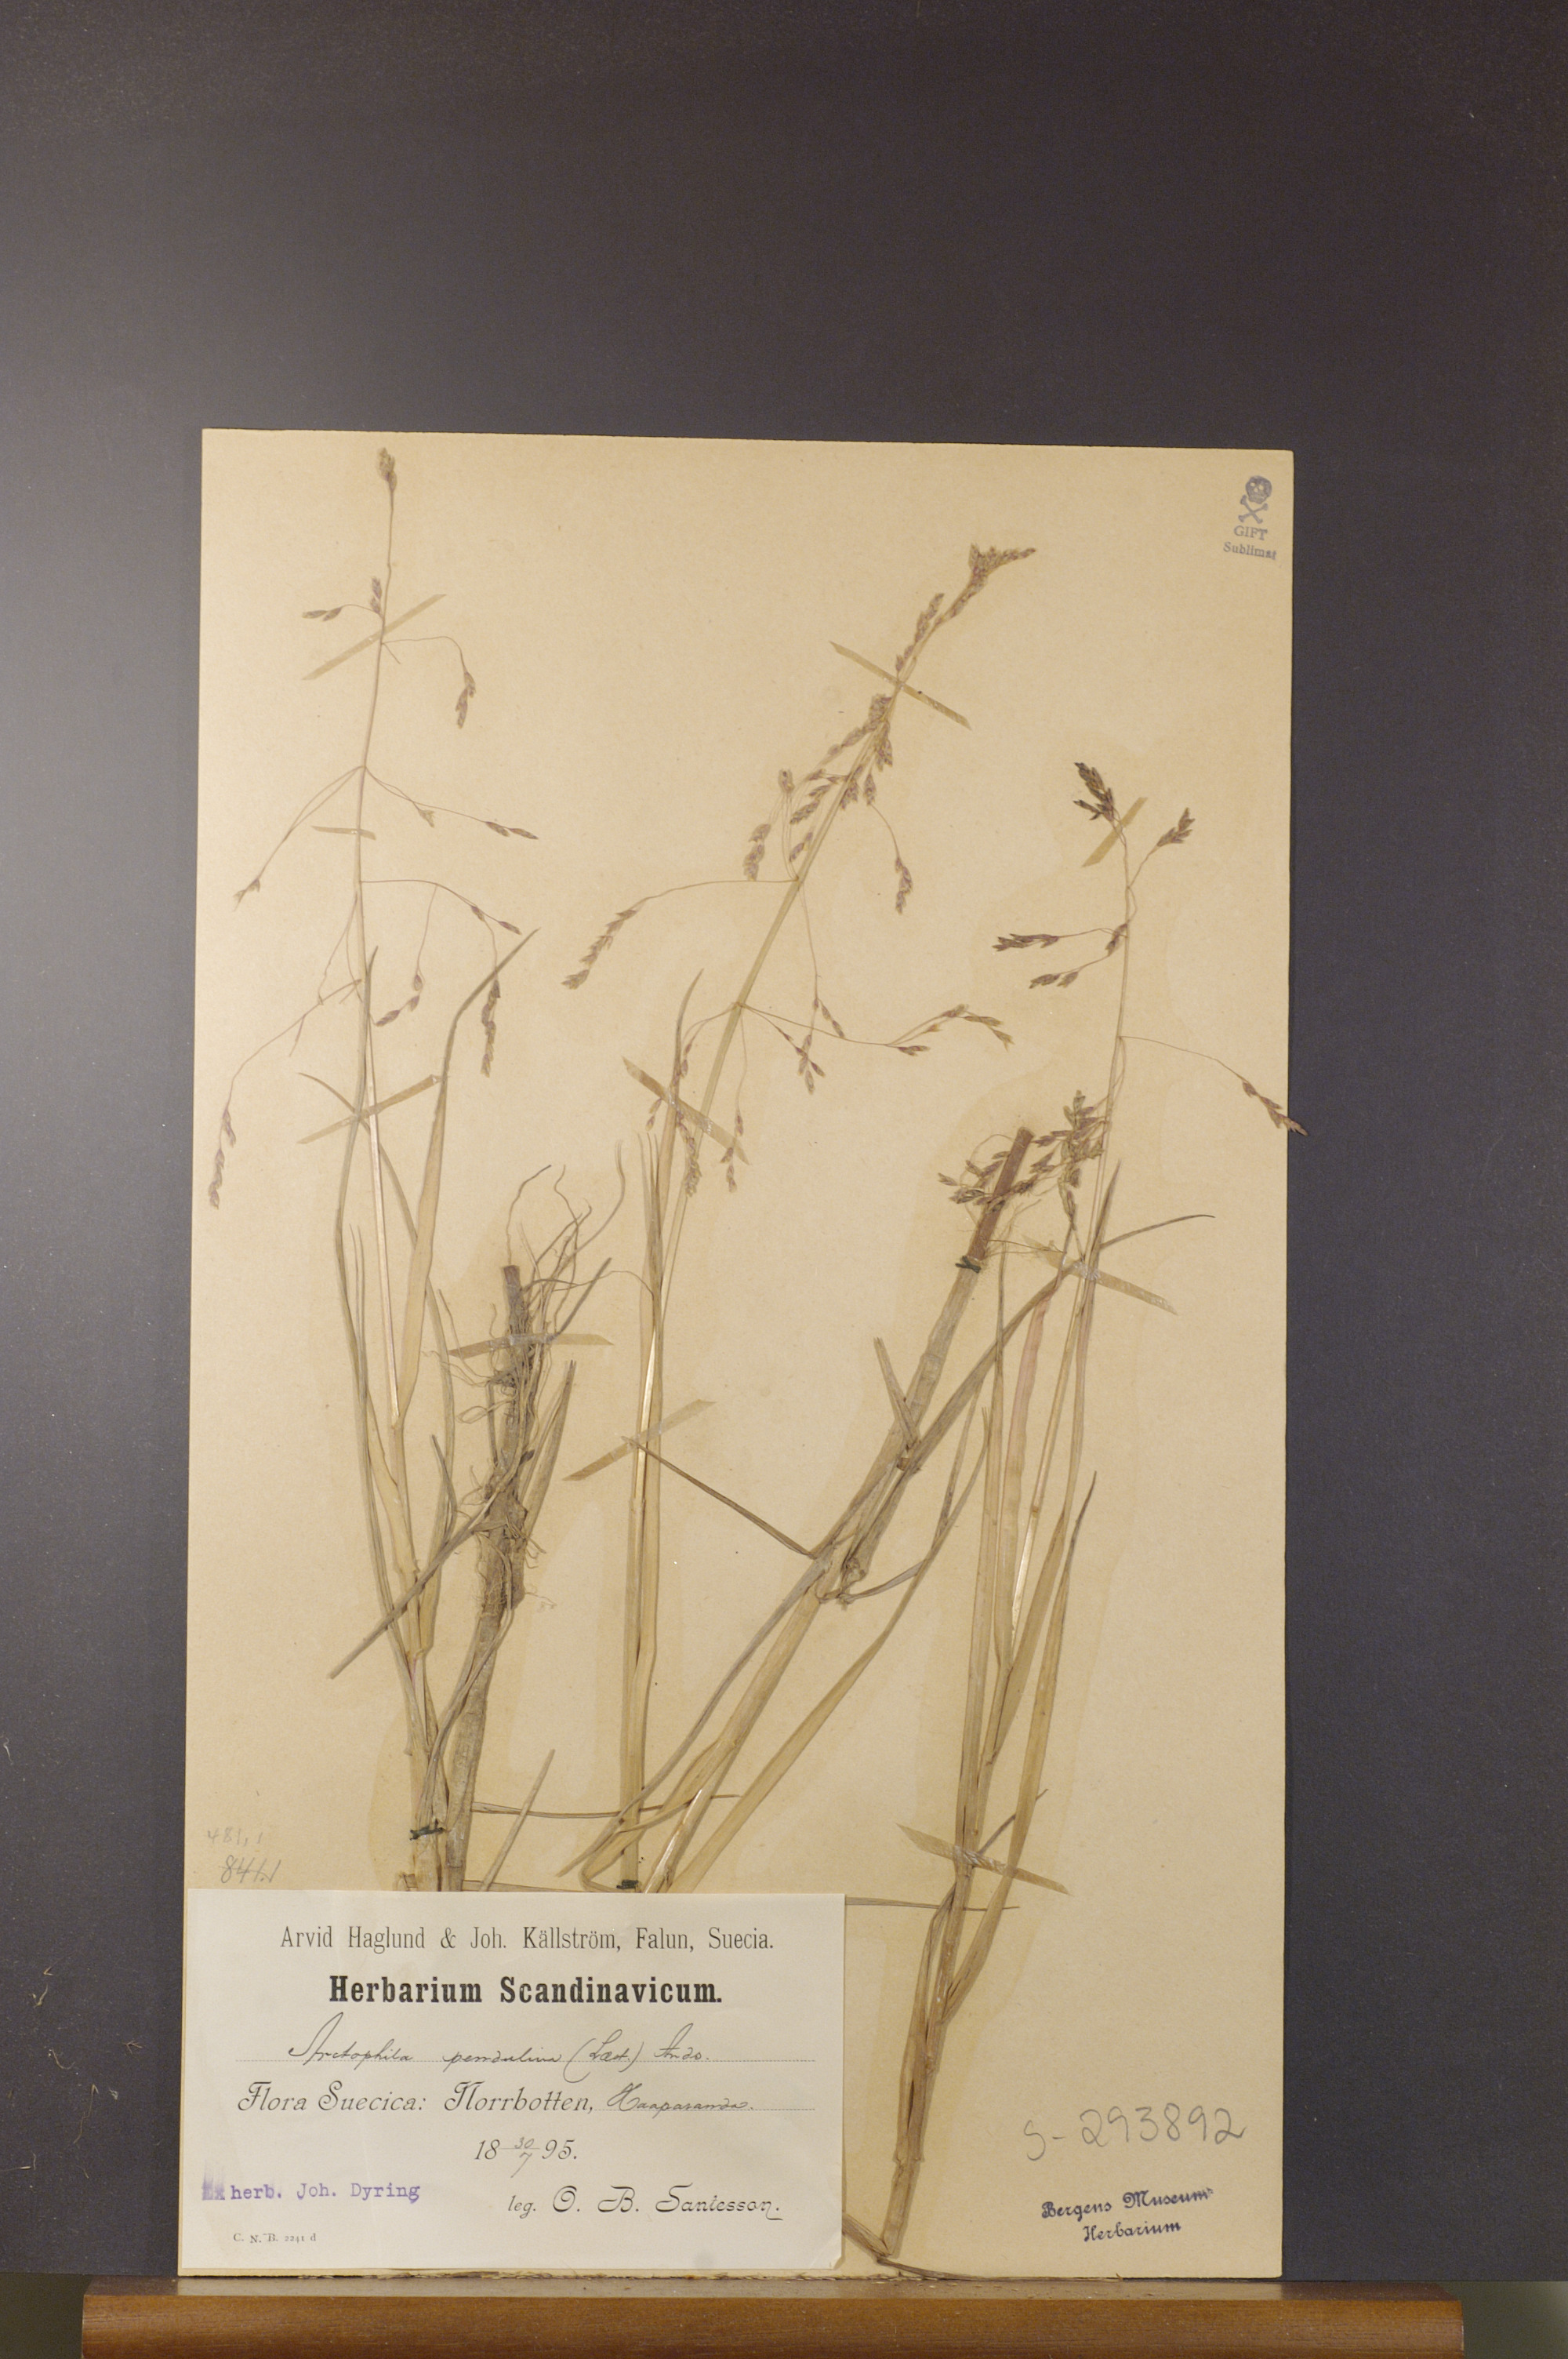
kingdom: Plantae
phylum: Tracheophyta
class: Liliopsida
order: Poales
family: Poaceae
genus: Dupontia
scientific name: Dupontia fulva
